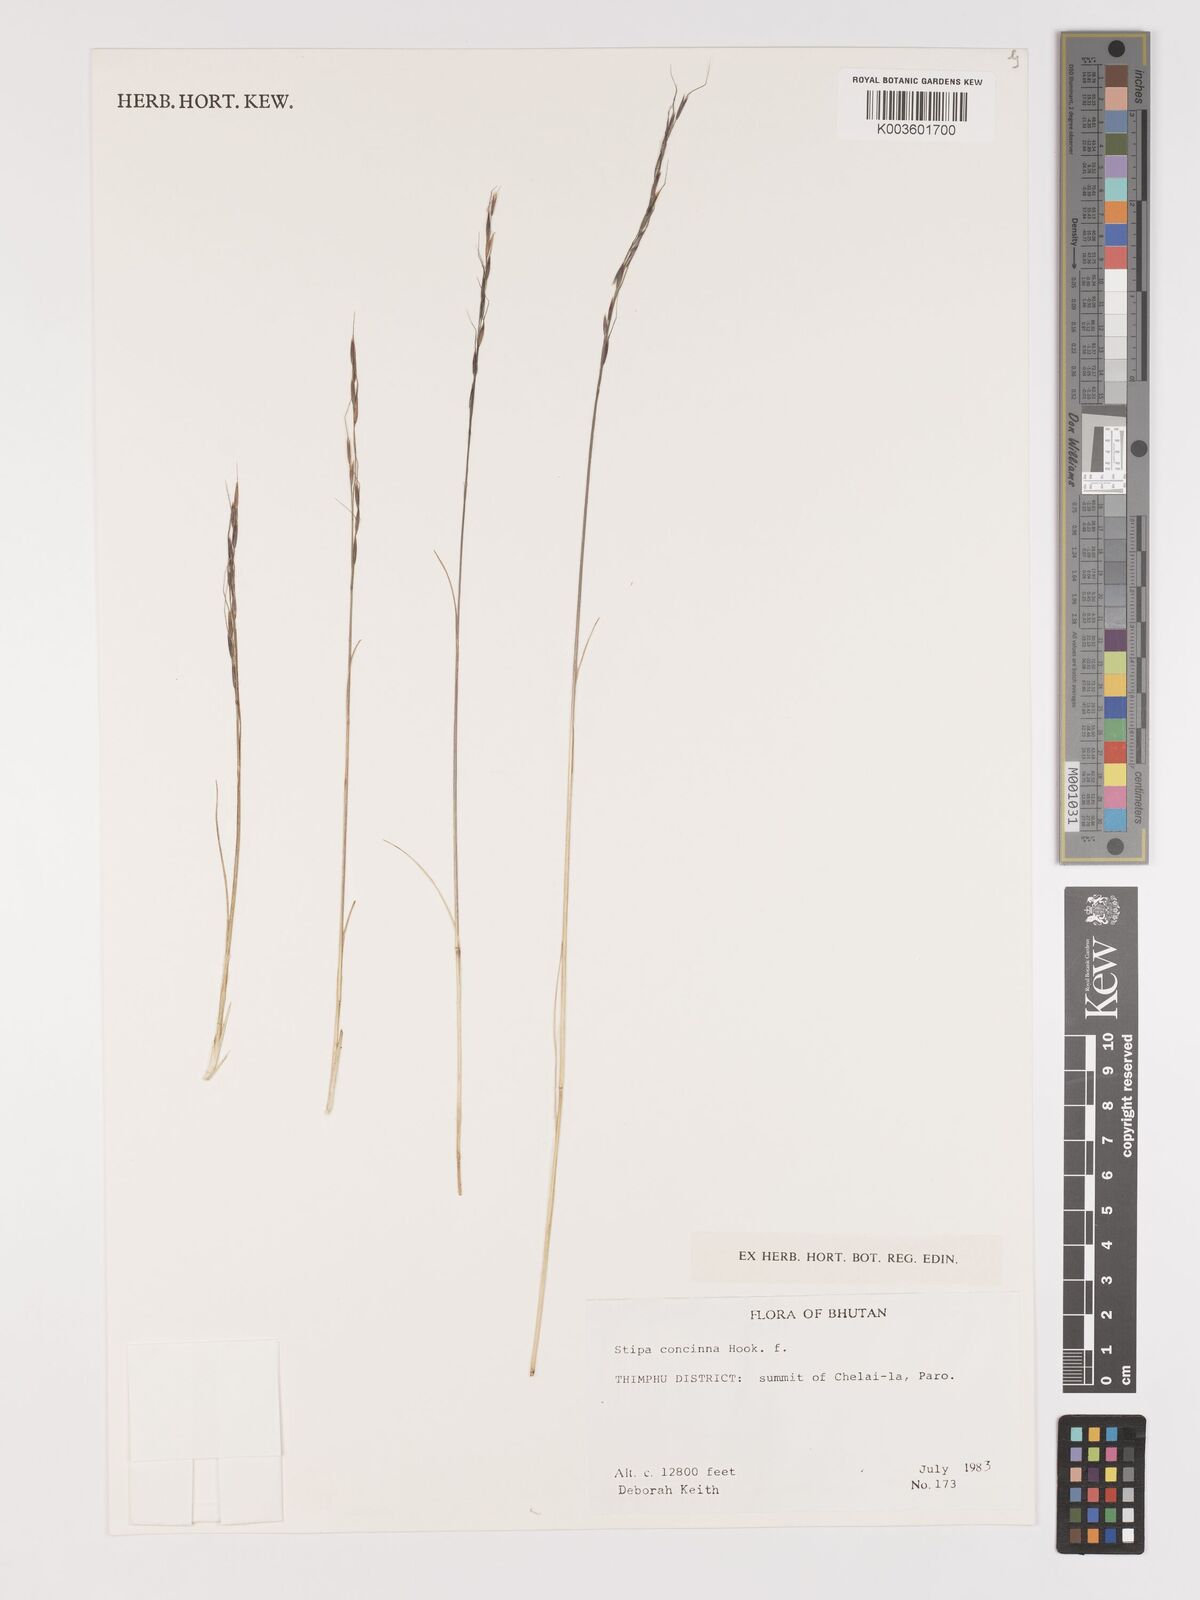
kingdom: Plantae
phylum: Tracheophyta
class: Liliopsida
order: Poales
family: Poaceae
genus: Ptilagrostis
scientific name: Ptilagrostis concinna
